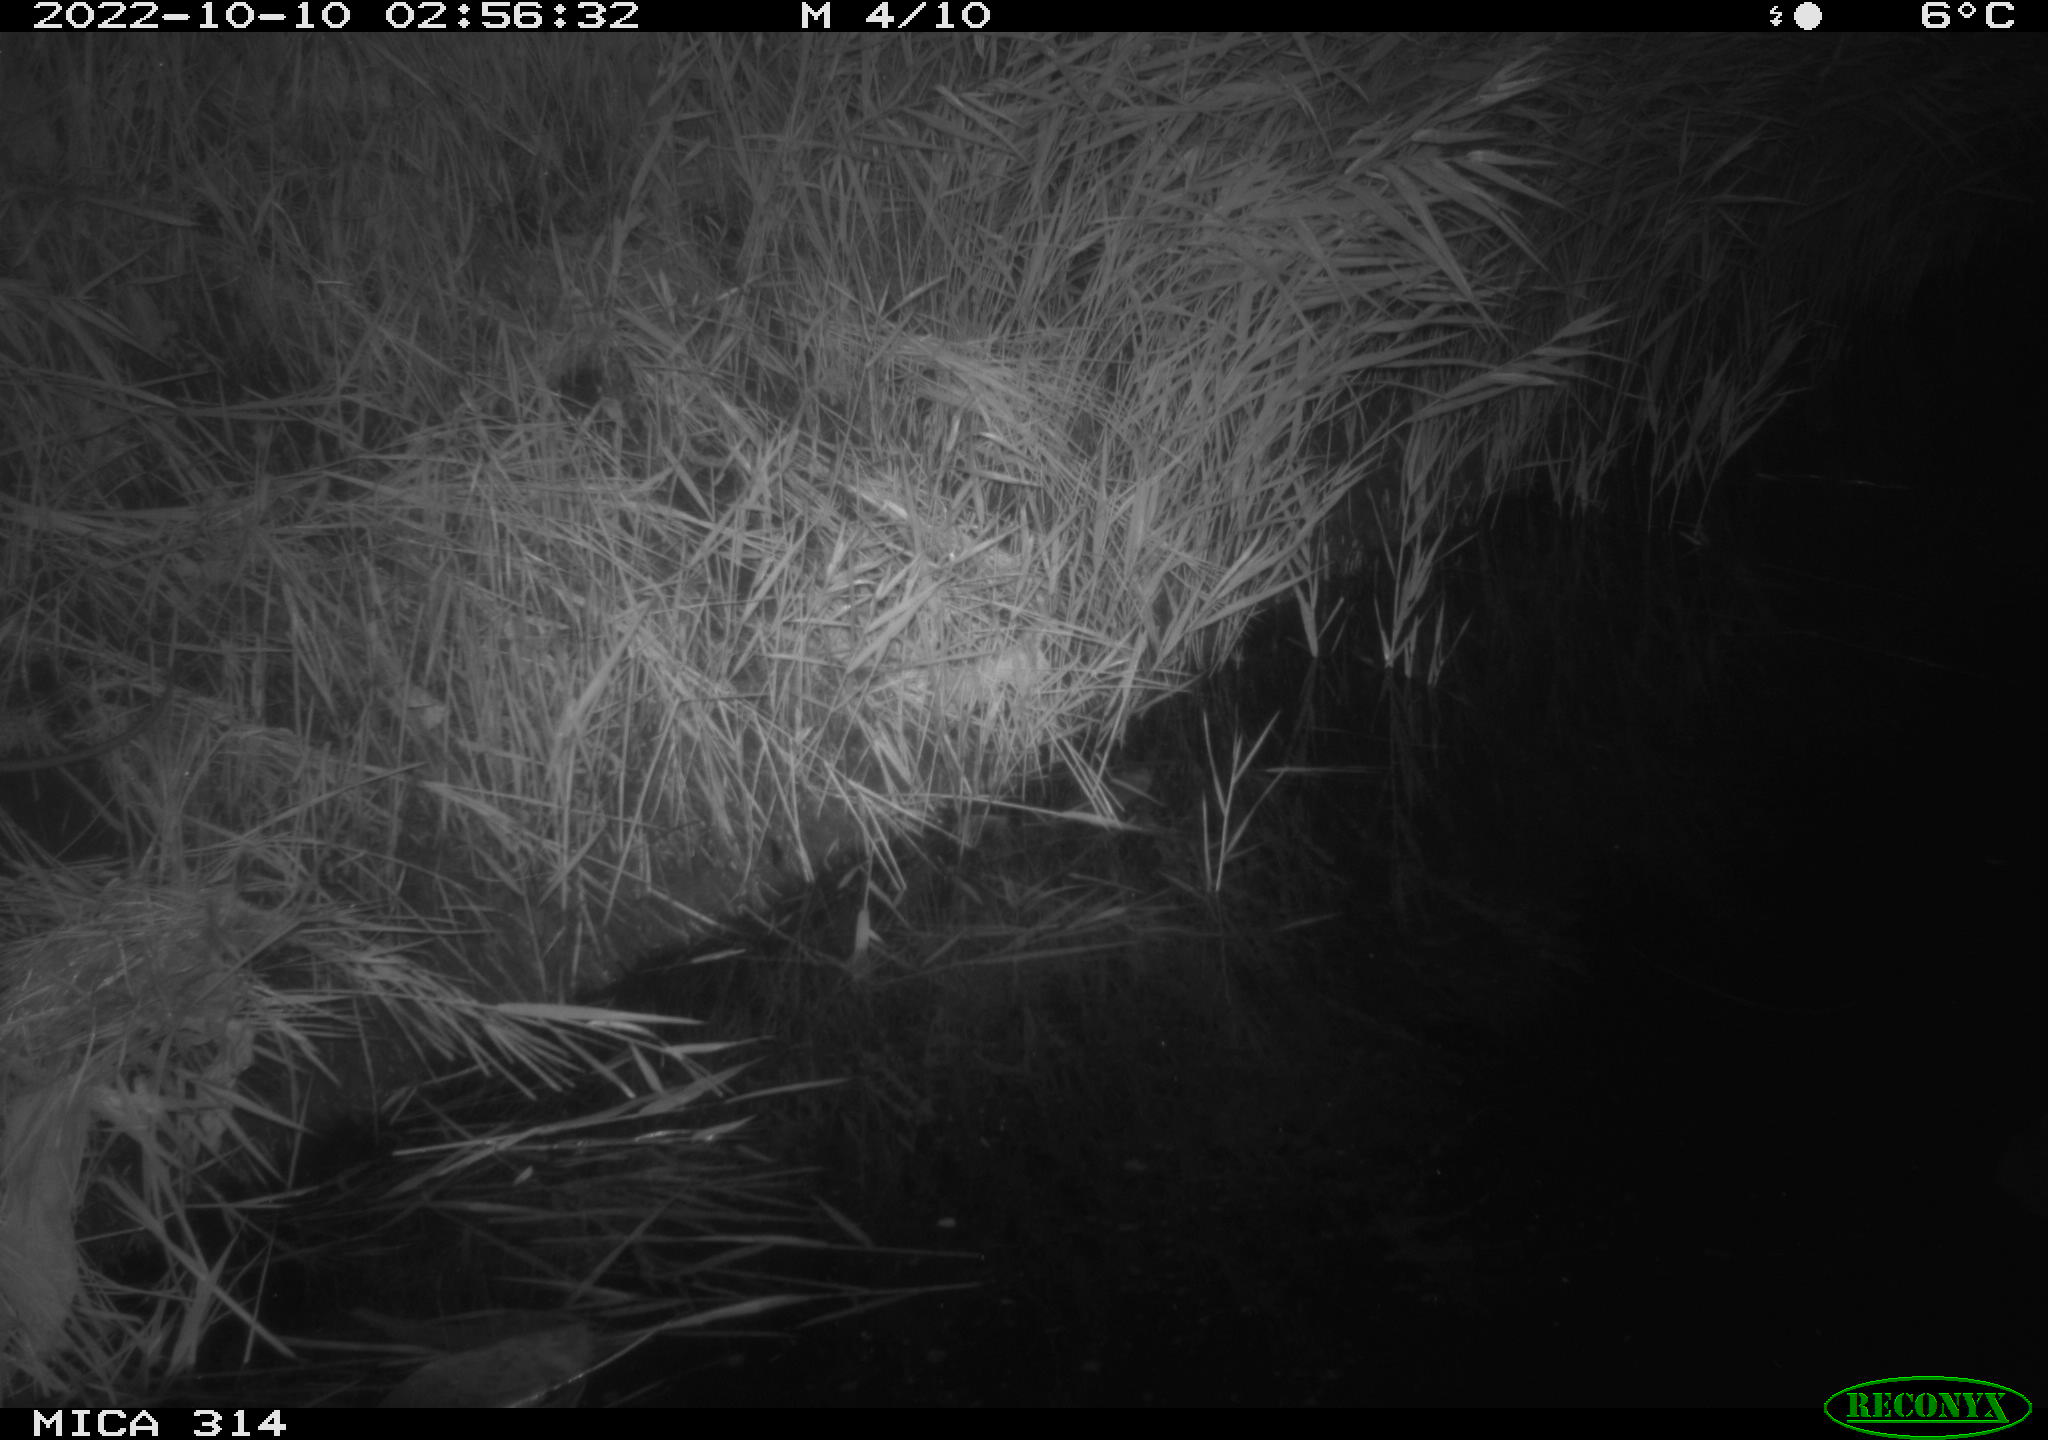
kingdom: Animalia
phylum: Chordata
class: Mammalia
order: Rodentia
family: Cricetidae
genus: Ondatra
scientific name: Ondatra zibethicus
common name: Muskrat
